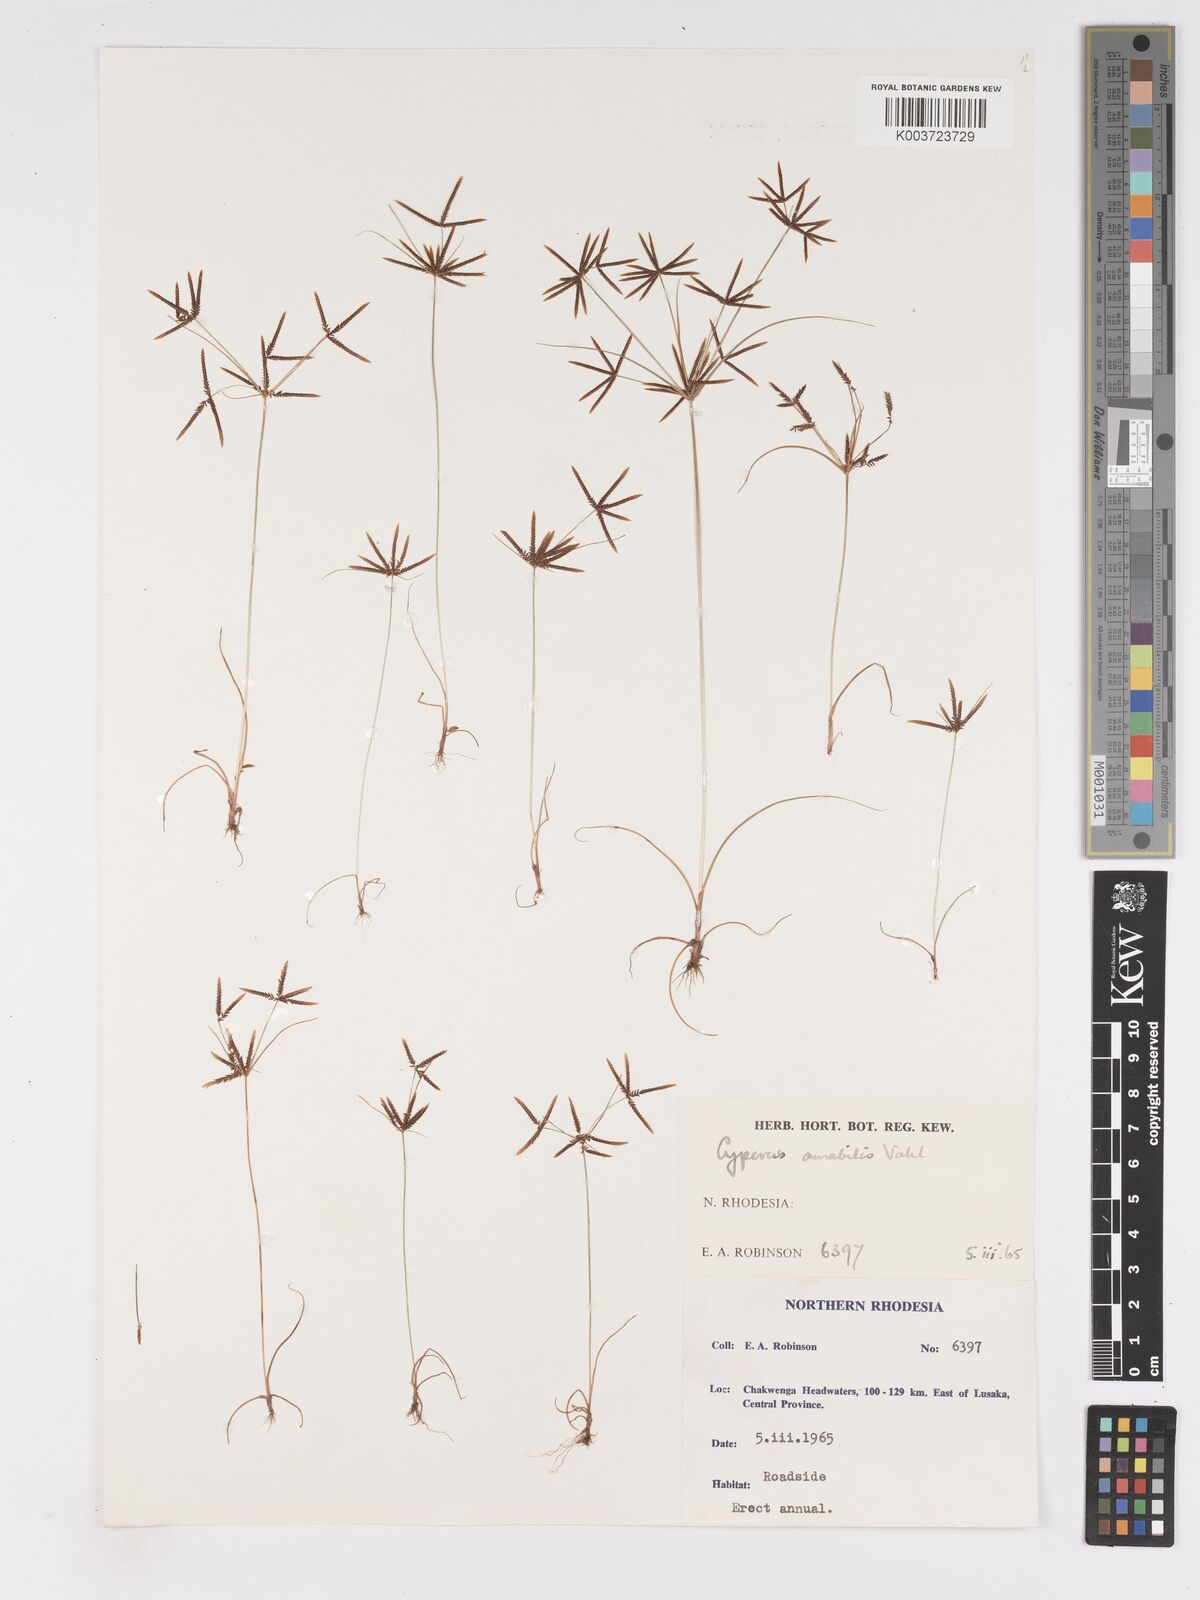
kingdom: Plantae
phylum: Tracheophyta
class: Liliopsida
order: Poales
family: Cyperaceae
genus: Cyperus
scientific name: Cyperus amabilis
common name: Foothill flat sedge
